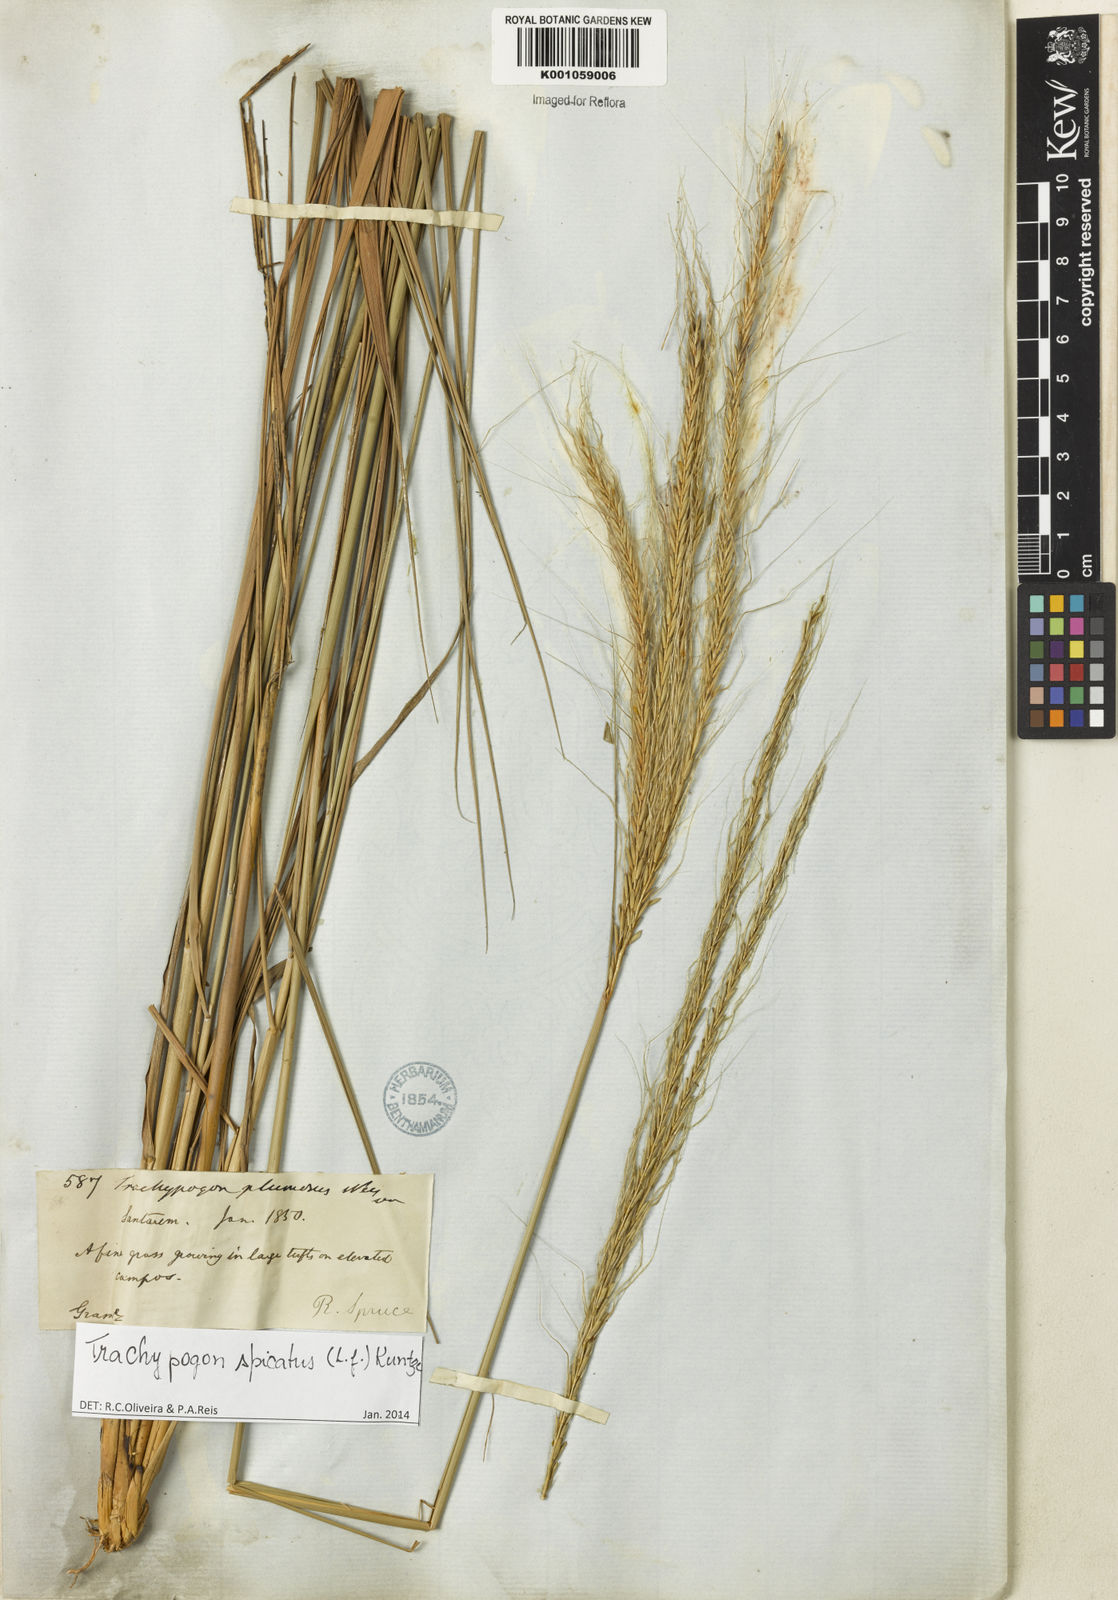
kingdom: Plantae
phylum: Tracheophyta
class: Liliopsida
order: Poales
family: Poaceae
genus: Trachypogon
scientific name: Trachypogon spicatus
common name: Crinkle-awn
